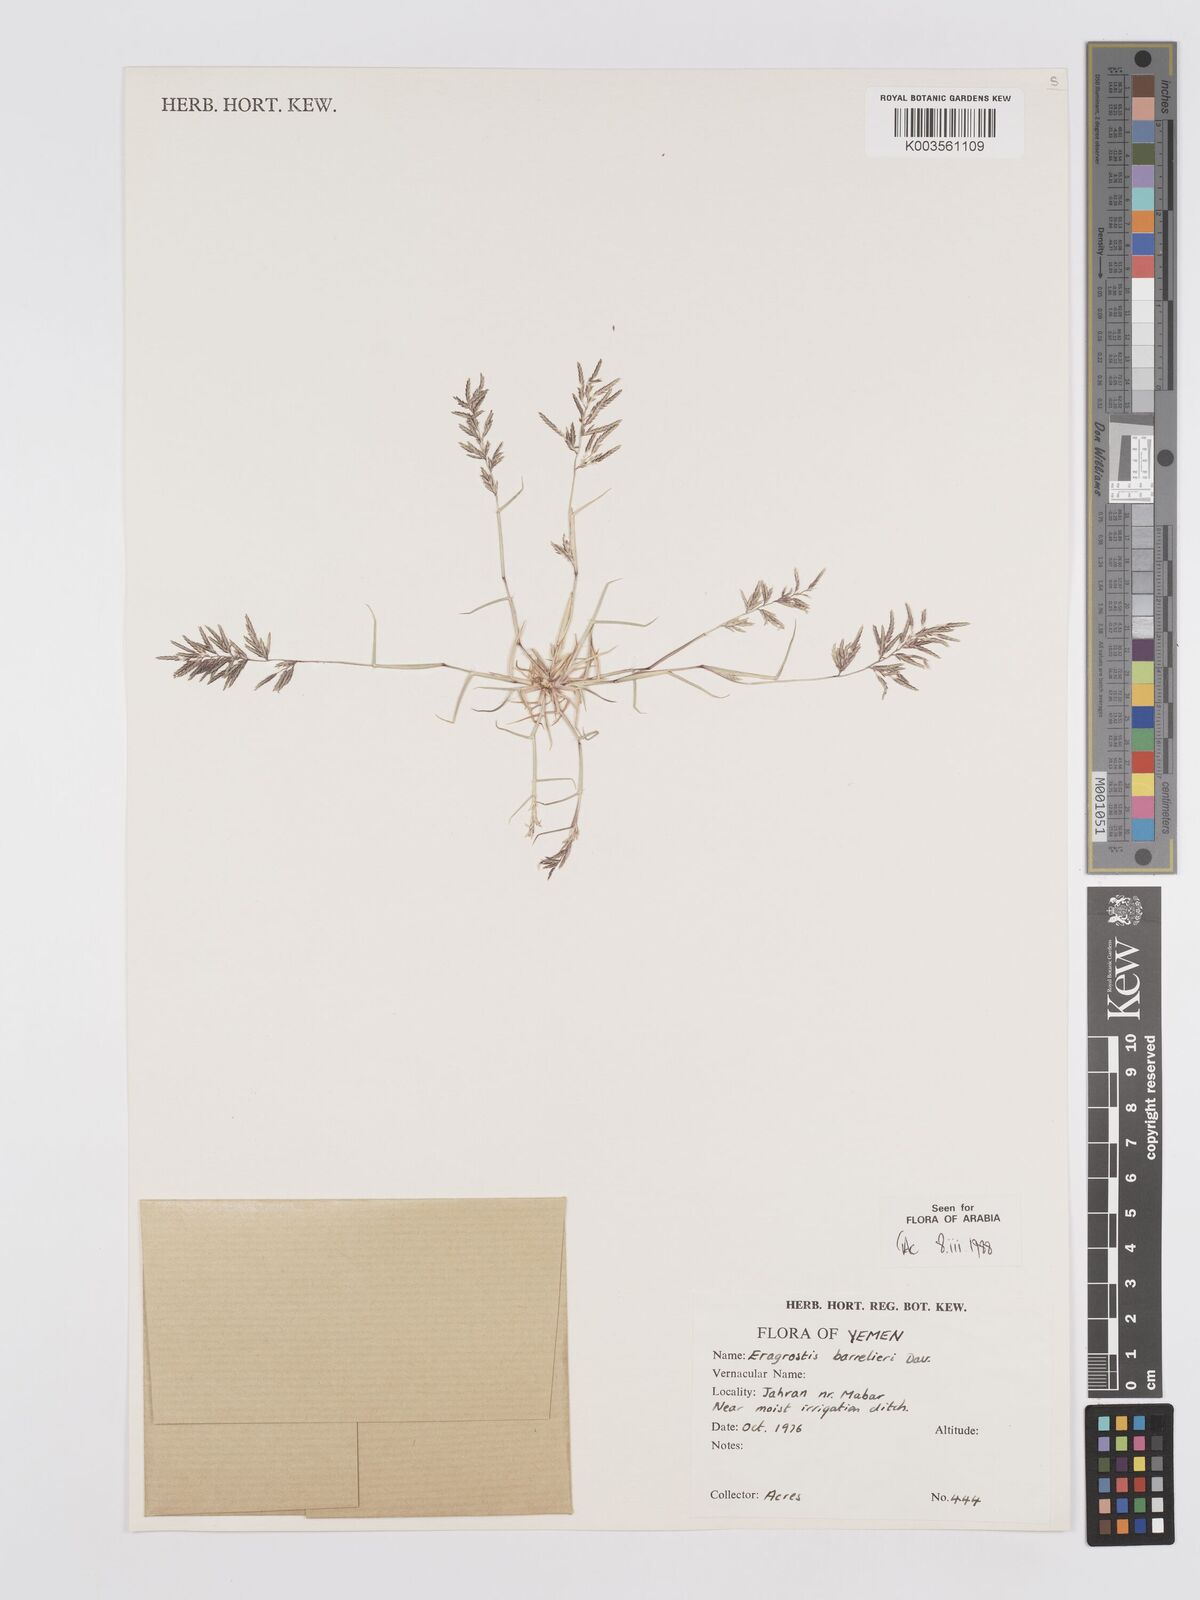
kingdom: Plantae
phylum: Tracheophyta
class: Liliopsida
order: Poales
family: Poaceae
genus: Eragrostis
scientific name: Eragrostis barrelieri
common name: Mediterranean lovegrass
